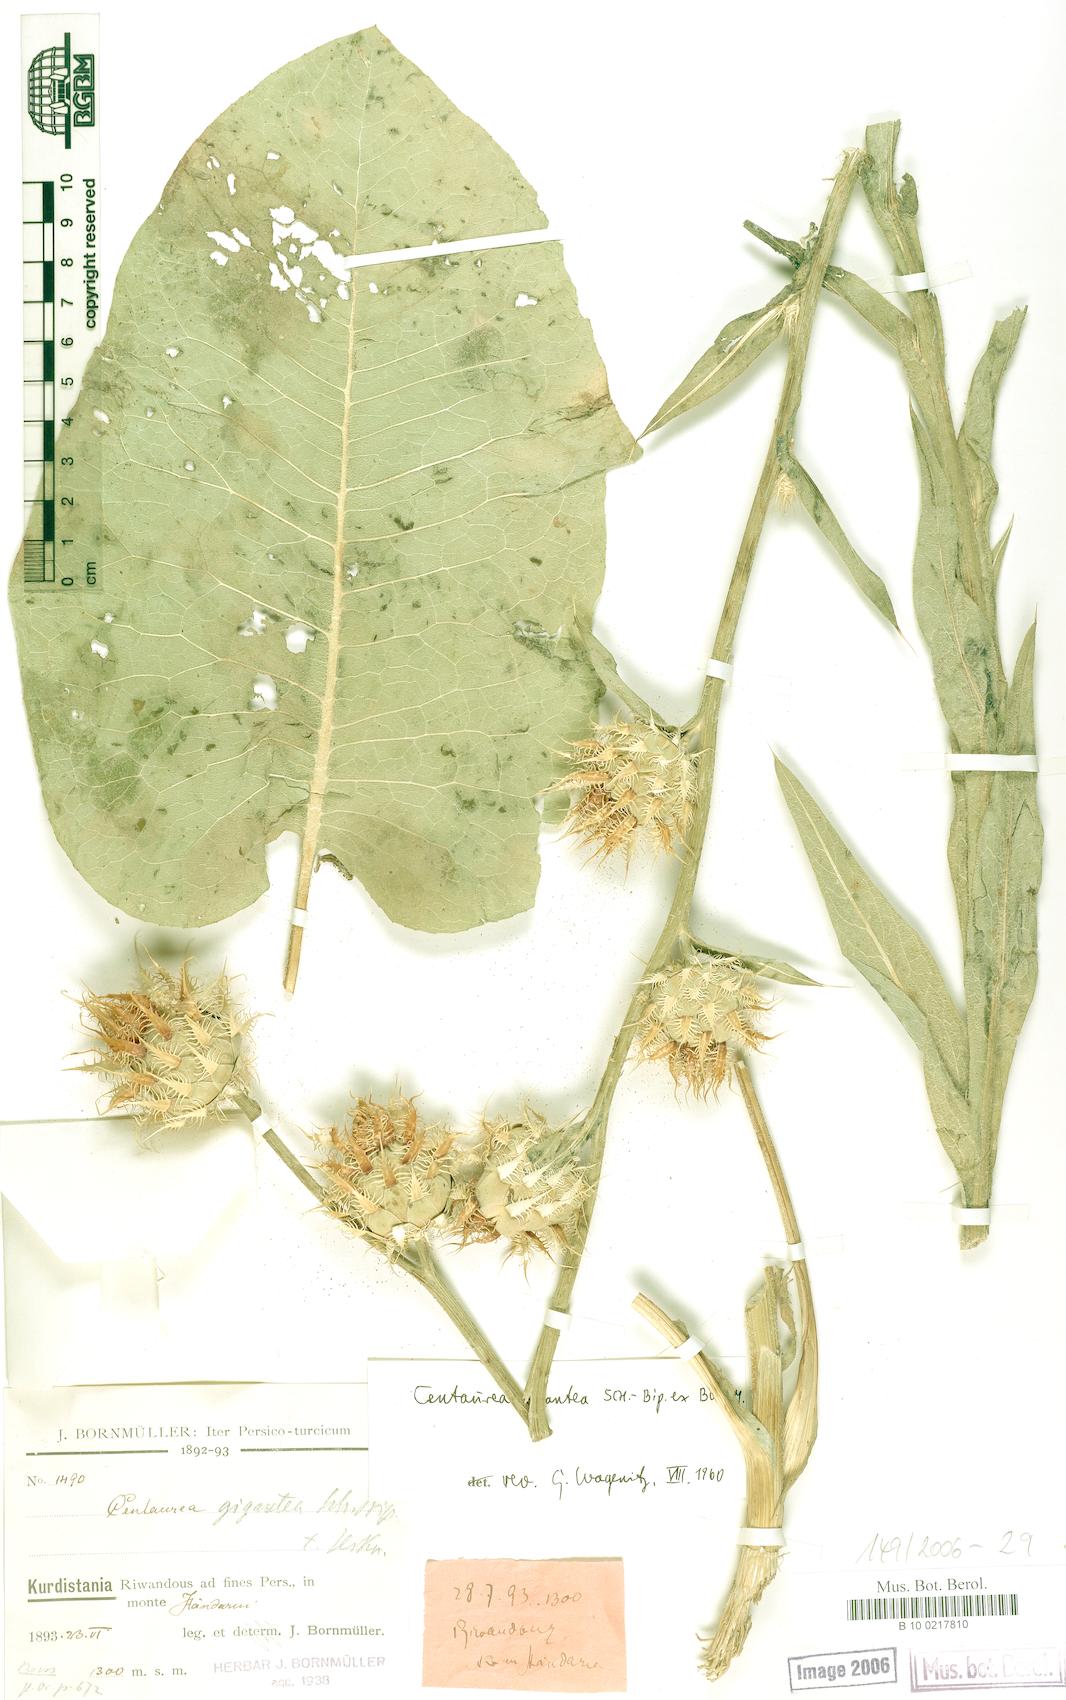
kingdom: Plantae
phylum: Tracheophyta
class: Magnoliopsida
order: Asterales
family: Asteraceae
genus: Centaurea
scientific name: Centaurea gigantea
